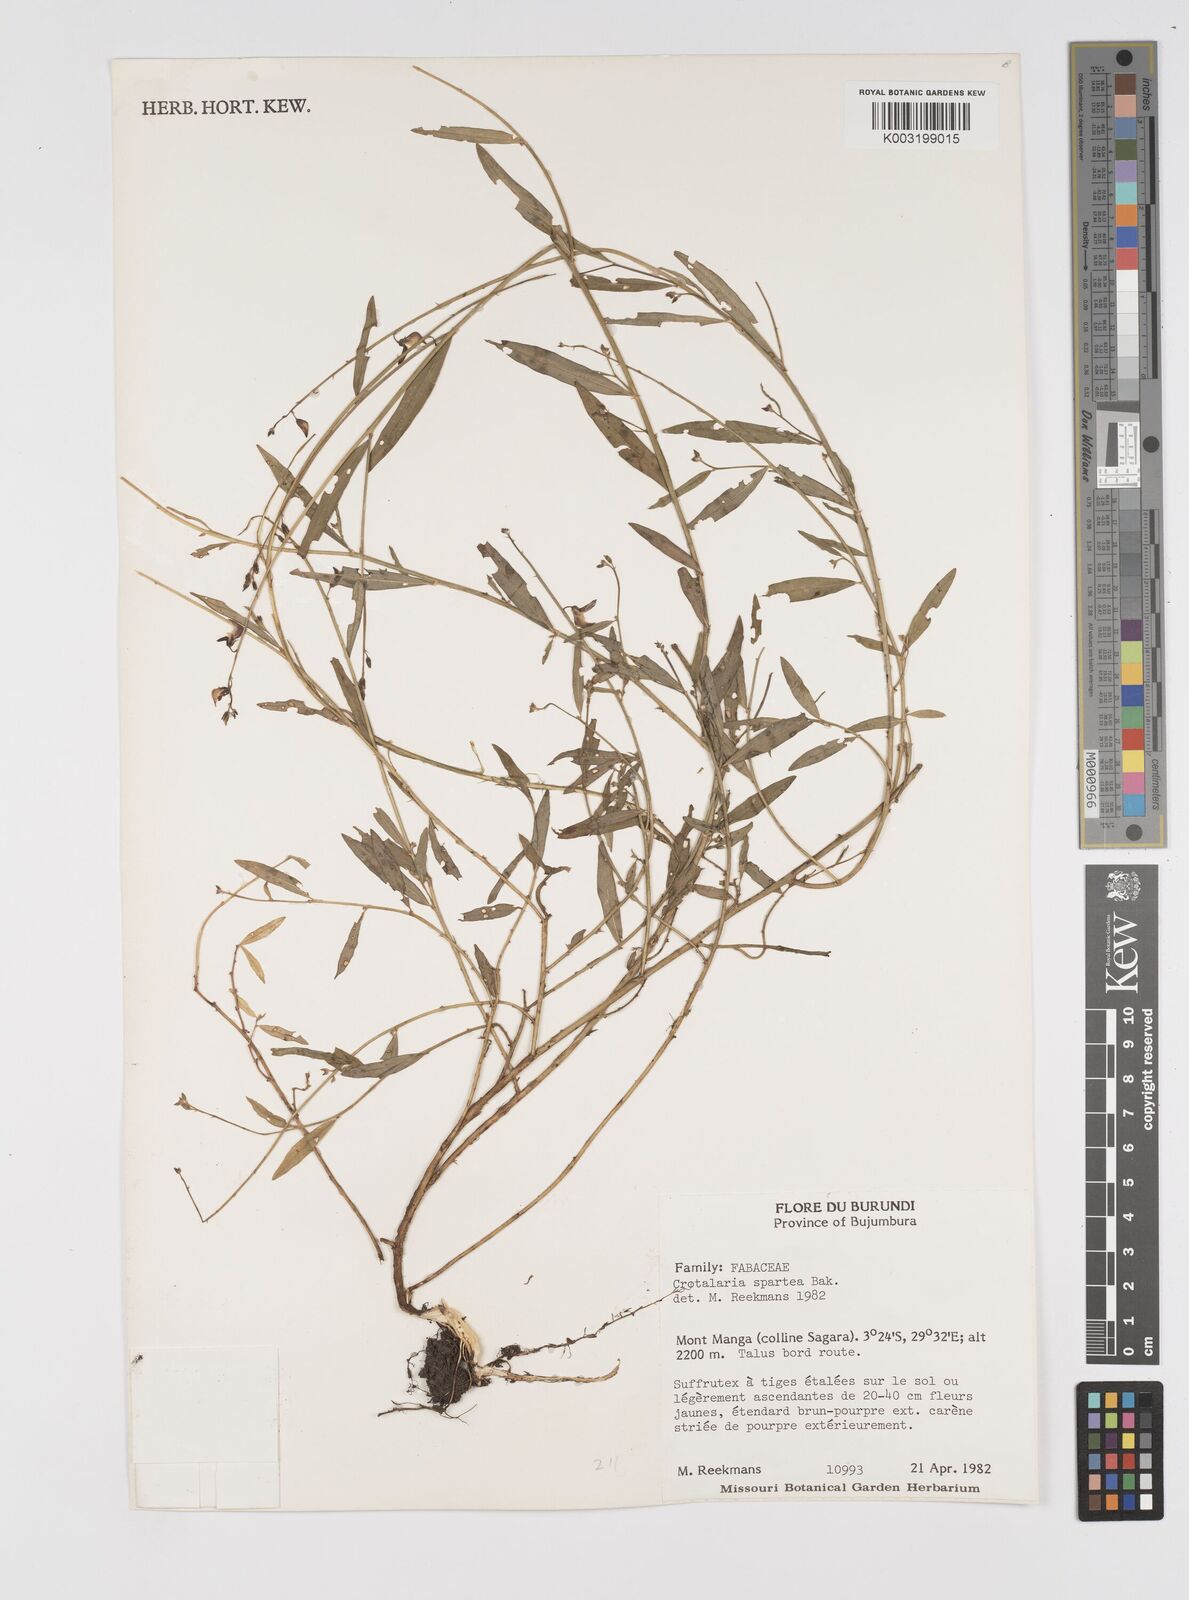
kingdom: Plantae
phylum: Tracheophyta
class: Magnoliopsida
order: Fabales
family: Fabaceae
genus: Crotalaria
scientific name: Crotalaria spartea
